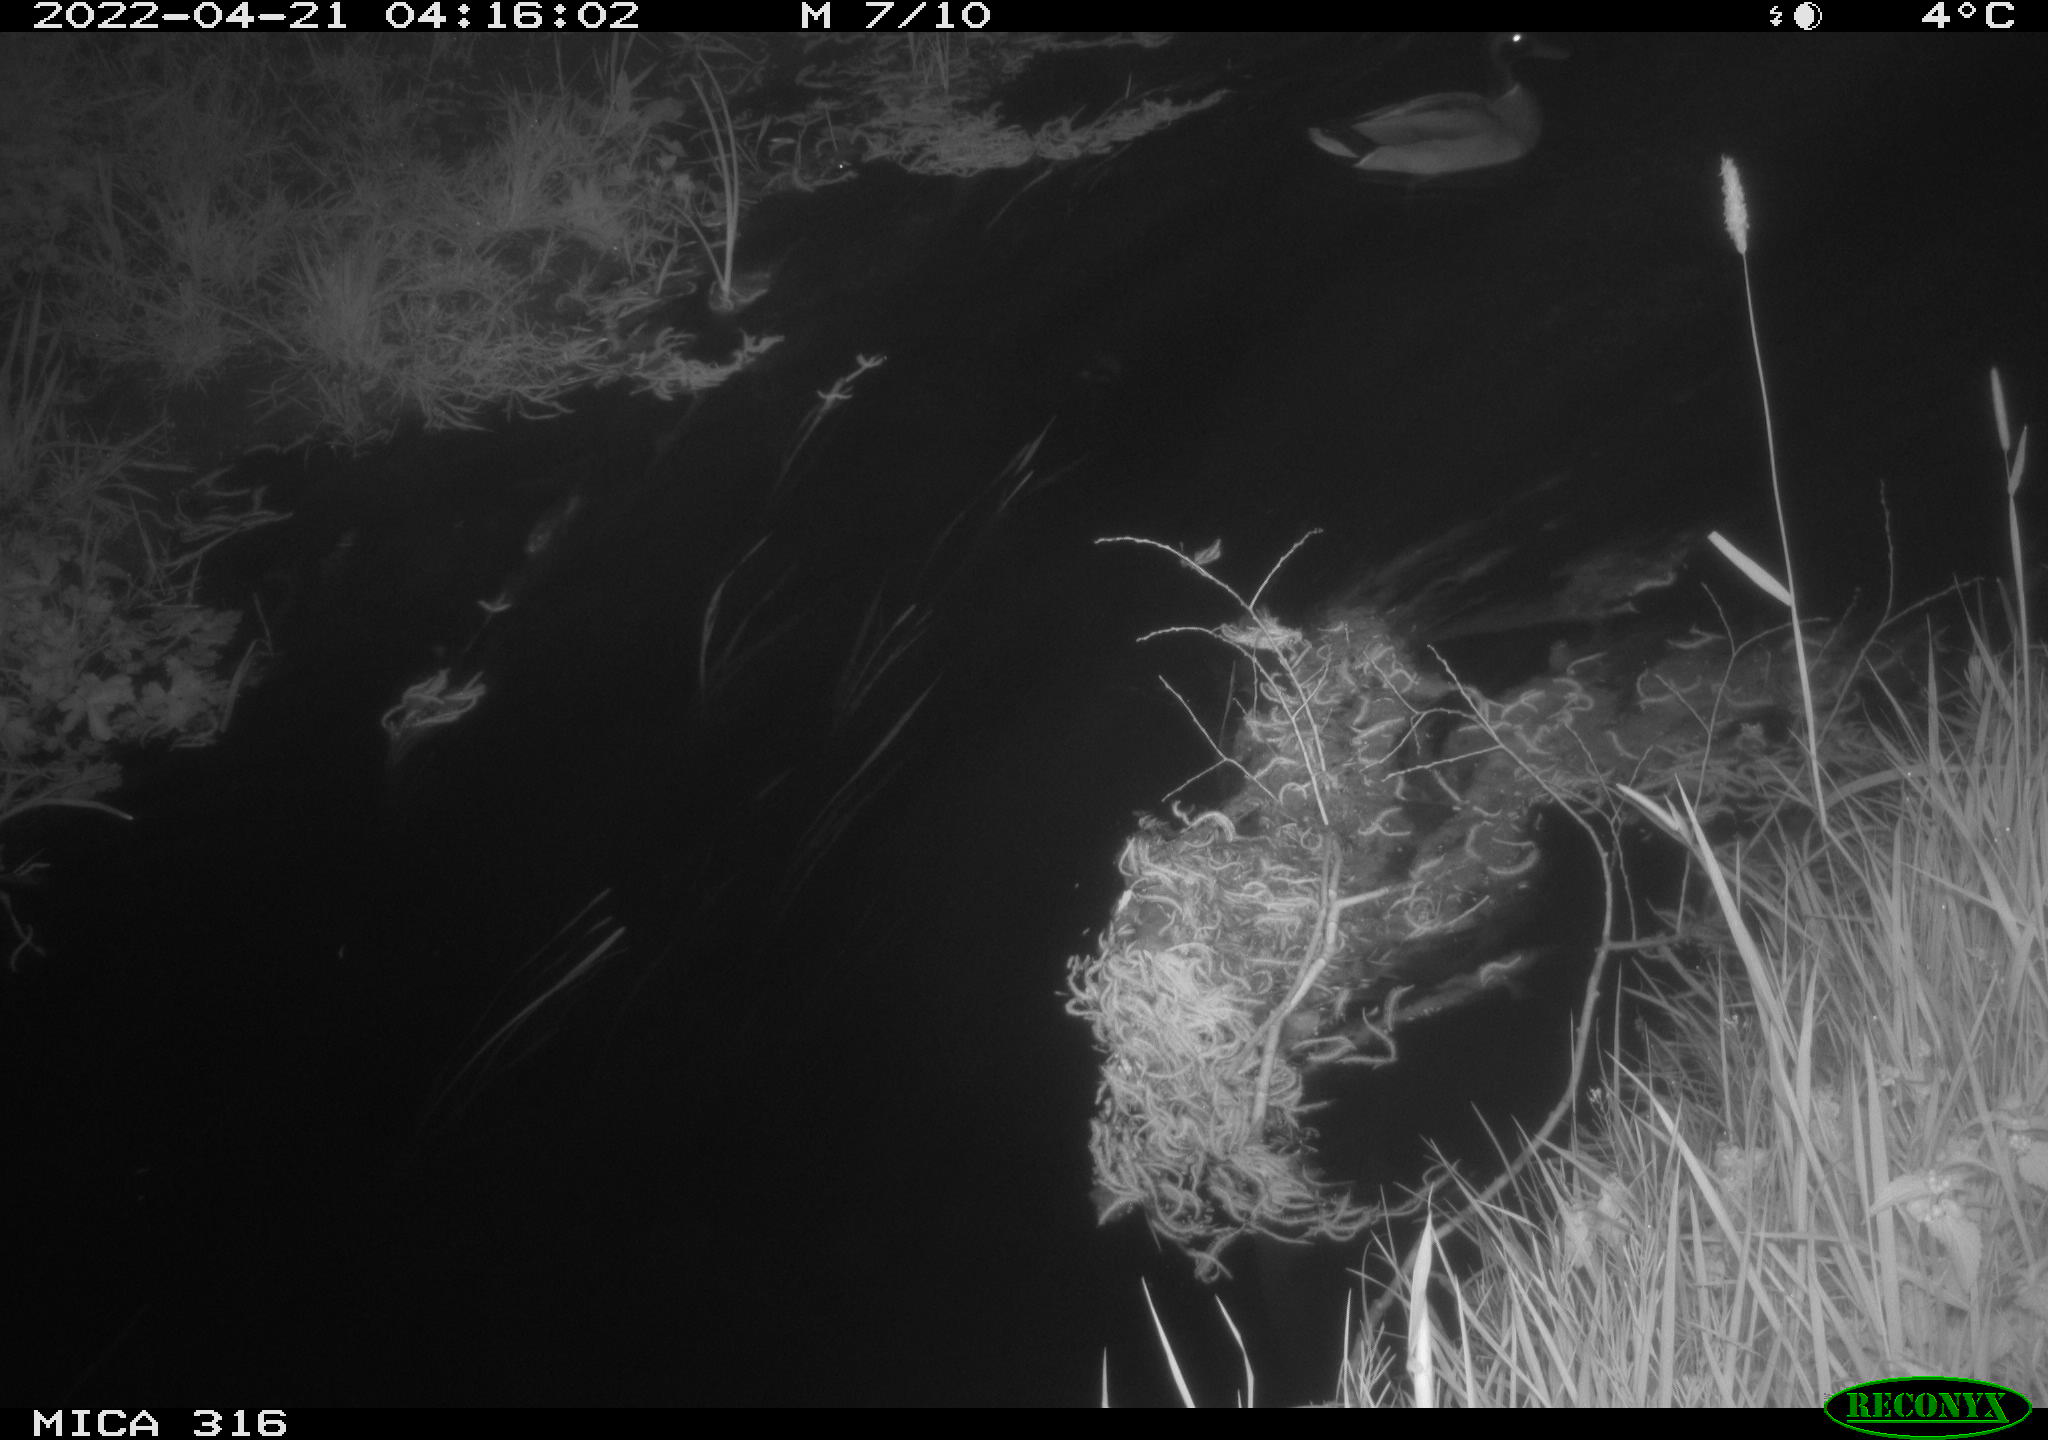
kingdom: Animalia
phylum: Chordata
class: Aves
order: Anseriformes
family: Anatidae
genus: Anas
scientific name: Anas platyrhynchos
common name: Mallard
